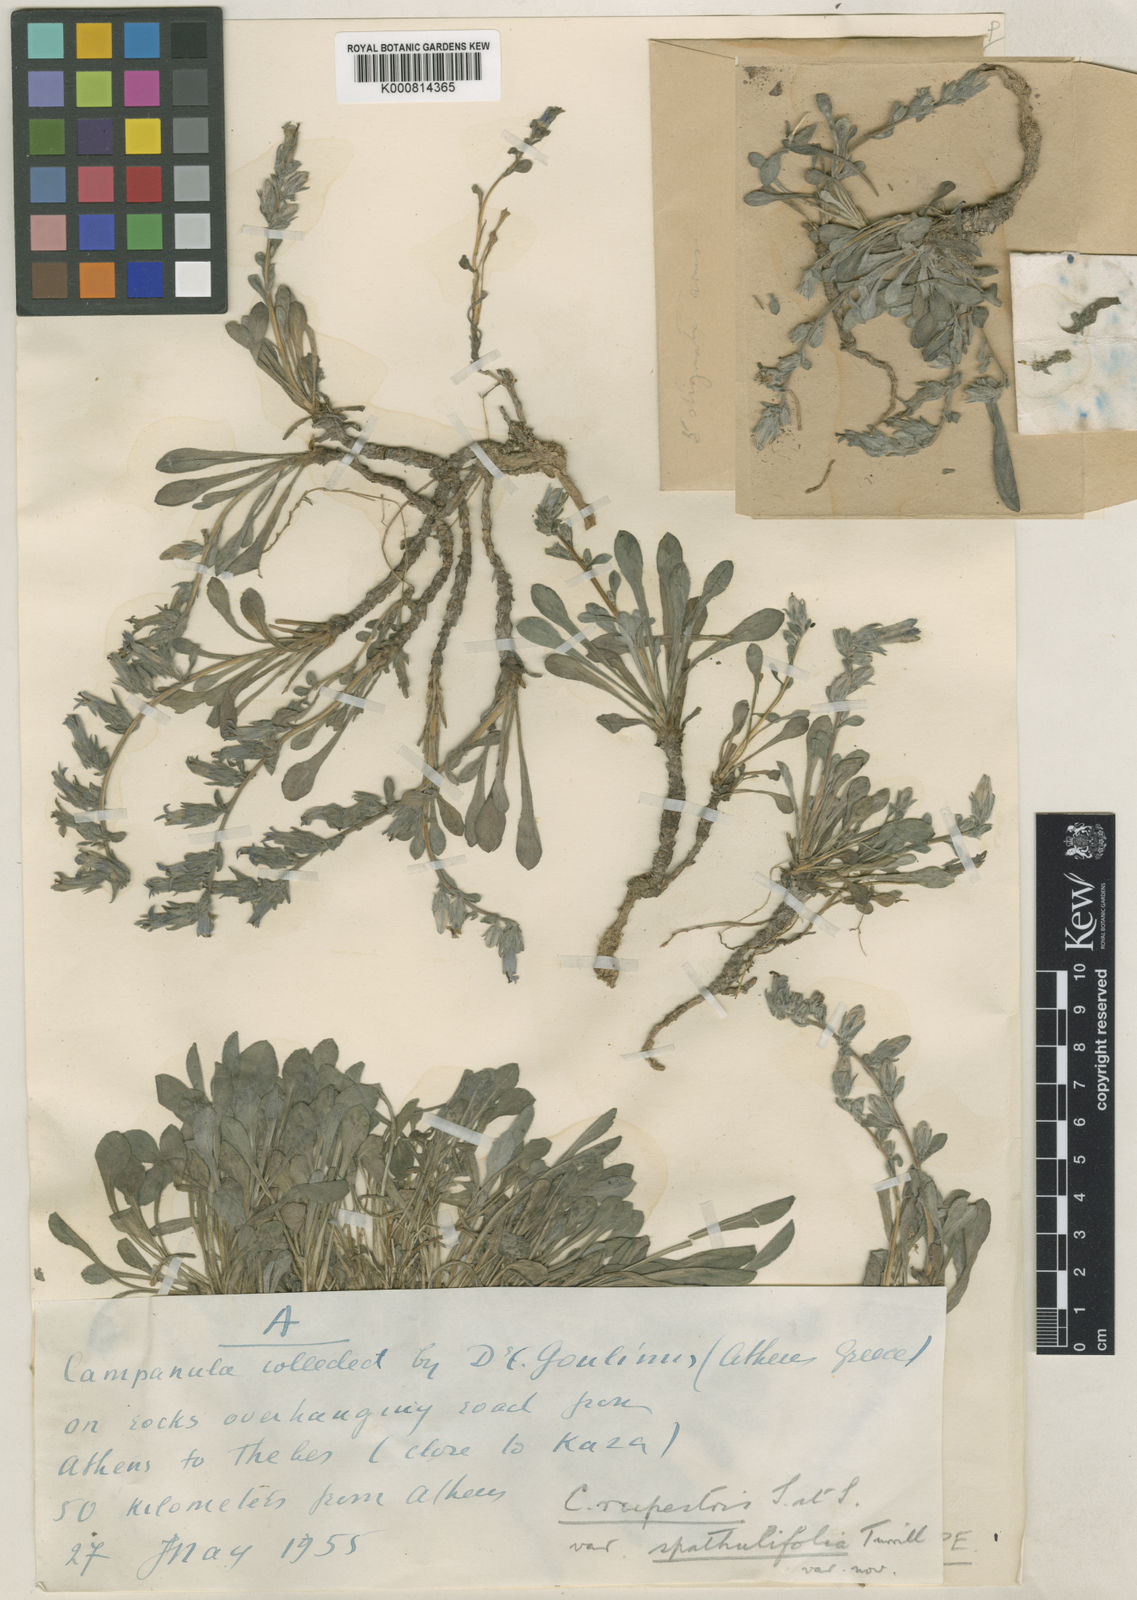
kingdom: Plantae
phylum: Tracheophyta
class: Magnoliopsida
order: Asterales
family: Campanulaceae
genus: Campanula
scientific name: Campanula rupestris
